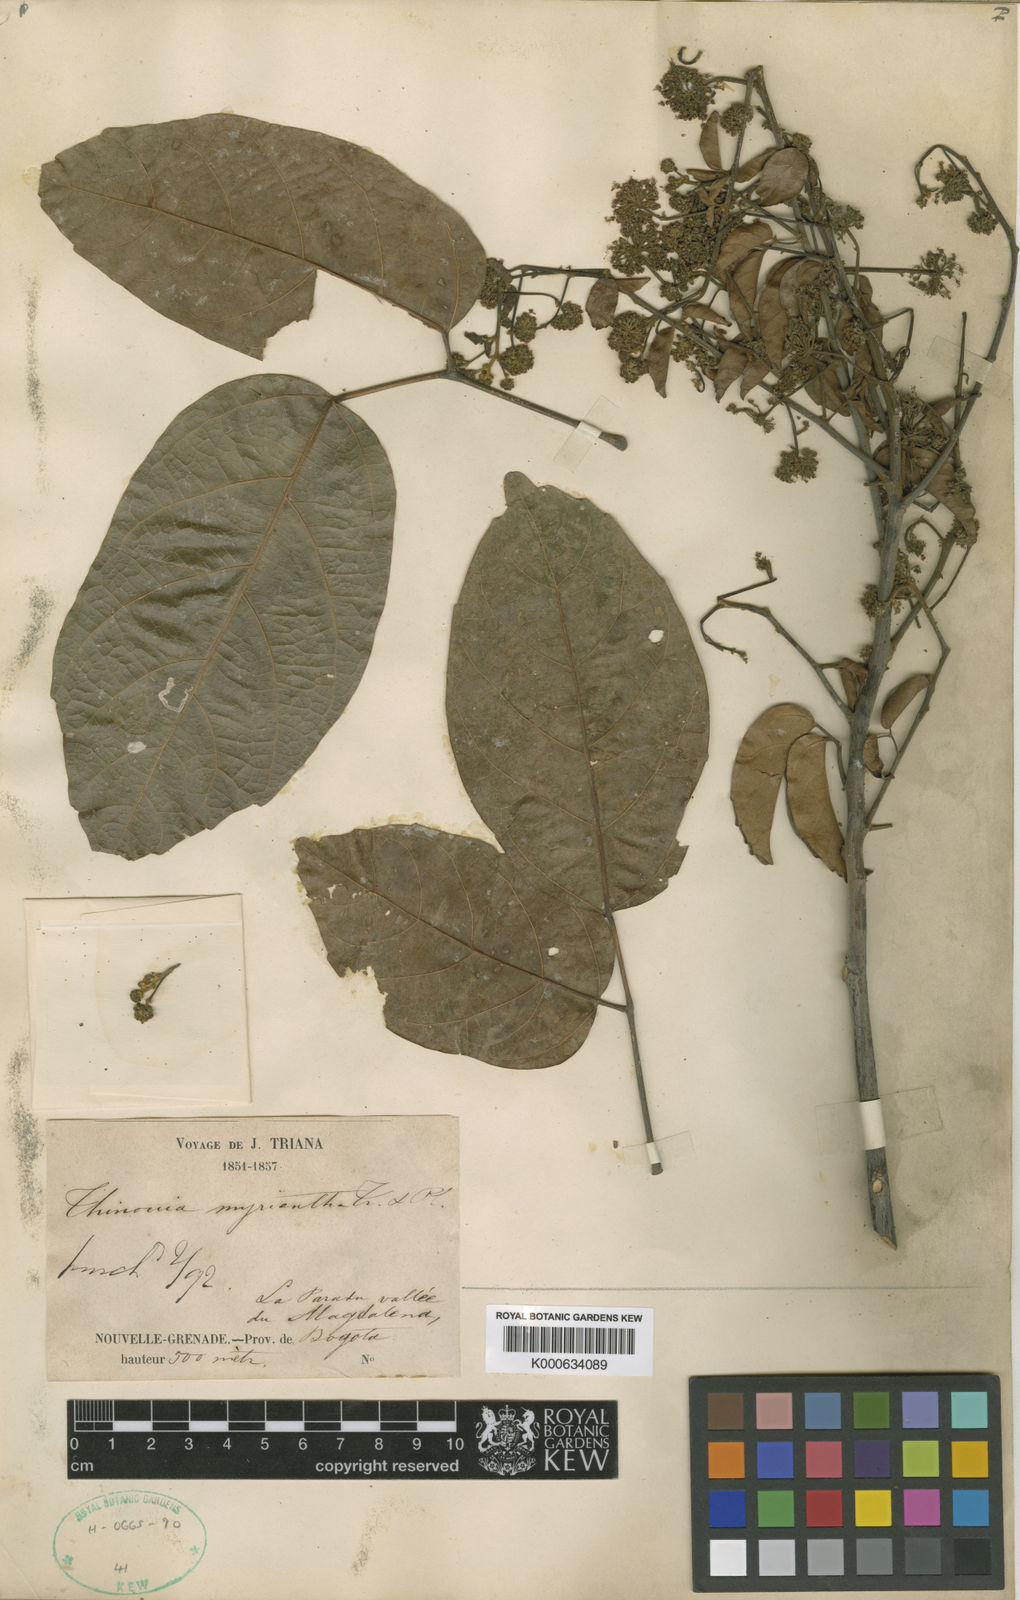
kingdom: Plantae
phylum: Tracheophyta
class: Magnoliopsida
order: Sapindales
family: Sapindaceae
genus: Thinouia
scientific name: Thinouia myriantha
